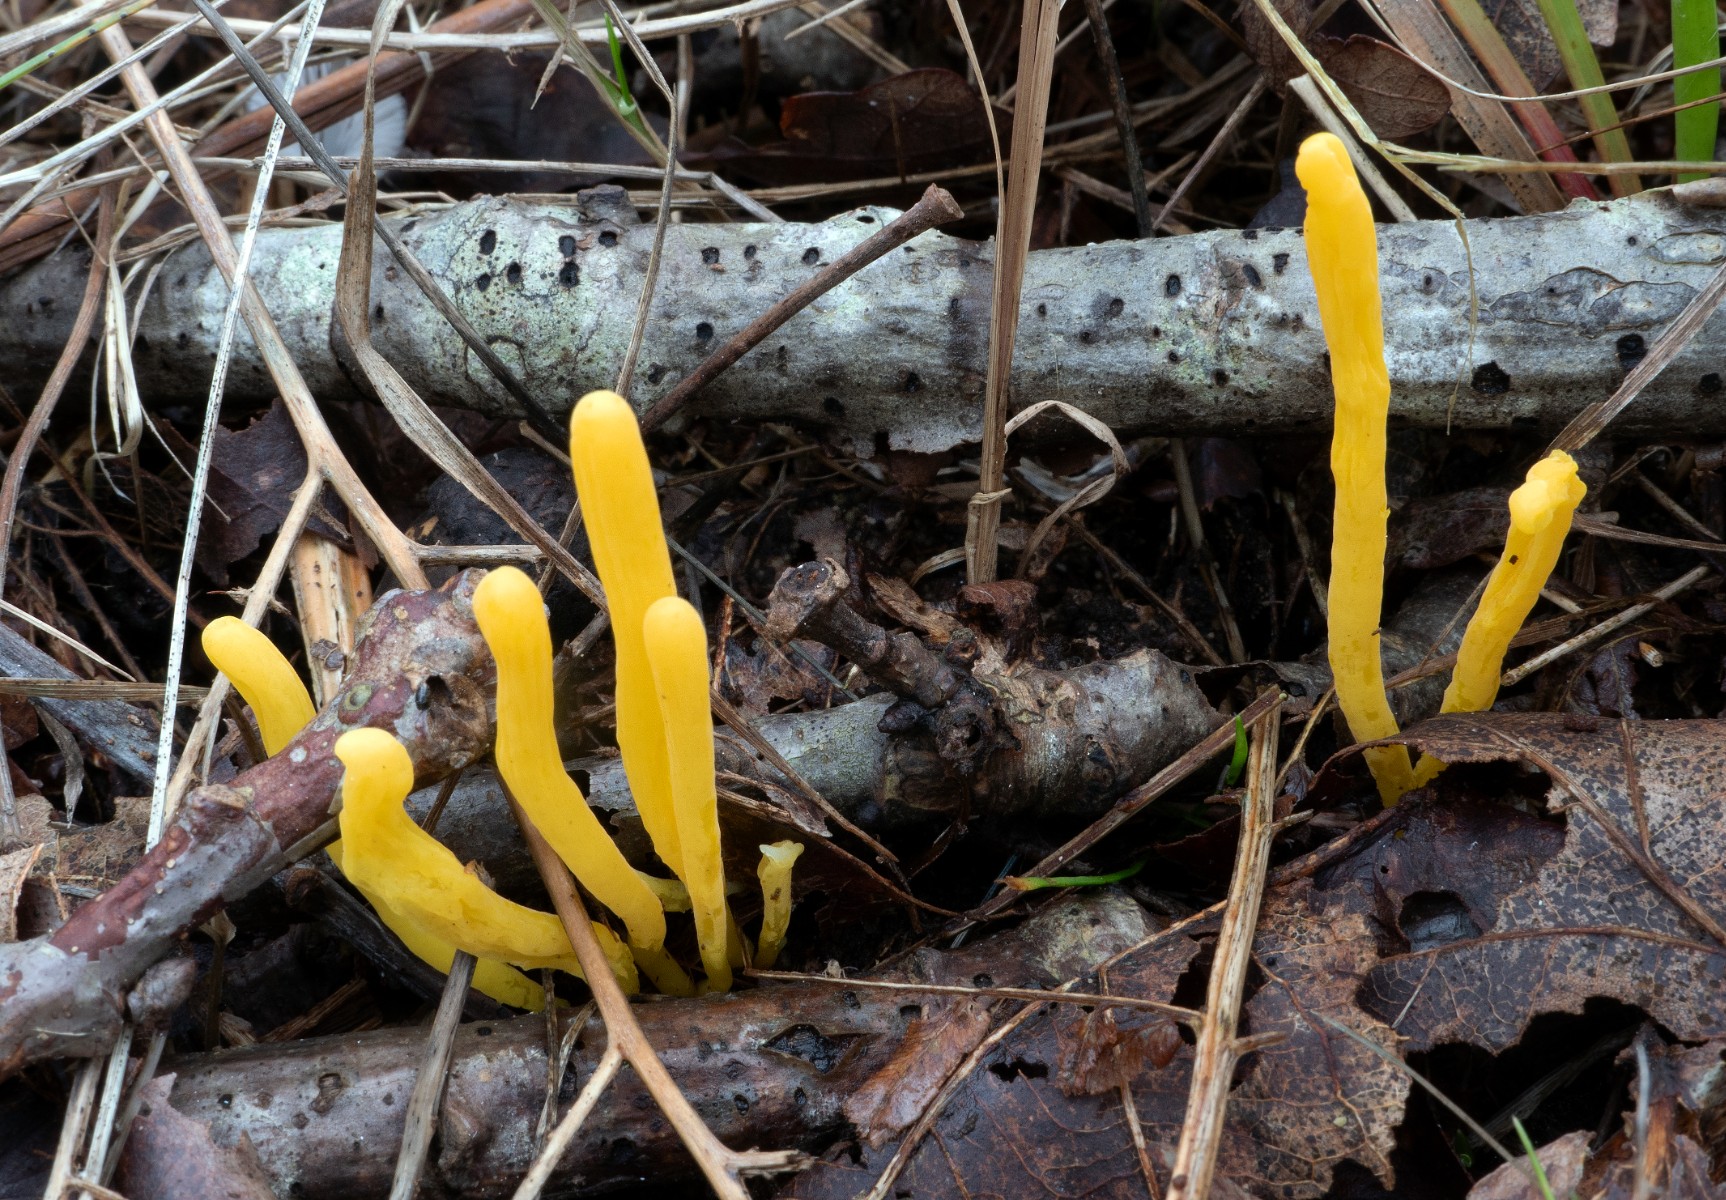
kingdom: Fungi
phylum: Basidiomycota
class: Agaricomycetes
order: Agaricales
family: Clavariaceae
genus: Clavulinopsis
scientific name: Clavulinopsis helvola
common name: orangegul køllesvamp
